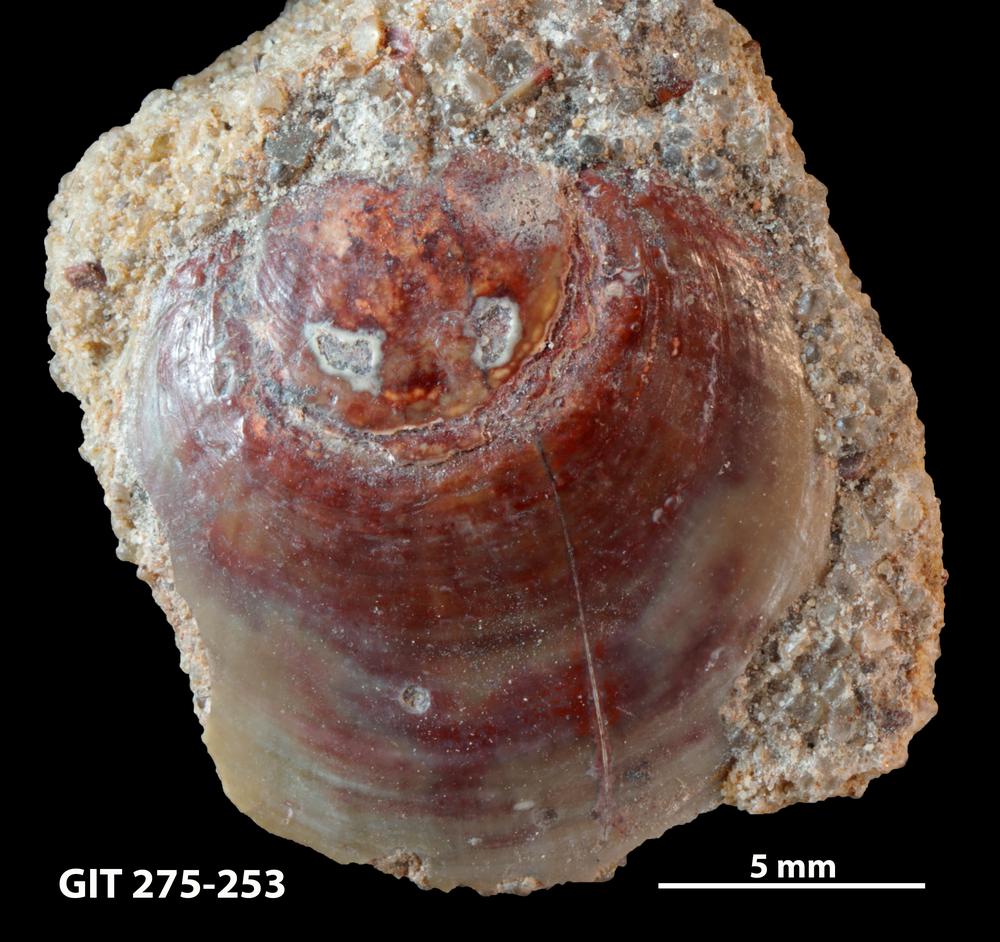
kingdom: Animalia
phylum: Brachiopoda
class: Lingulata
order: Lingulida
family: Obolidae
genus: Obolus
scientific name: Obolus Ungula convexa
